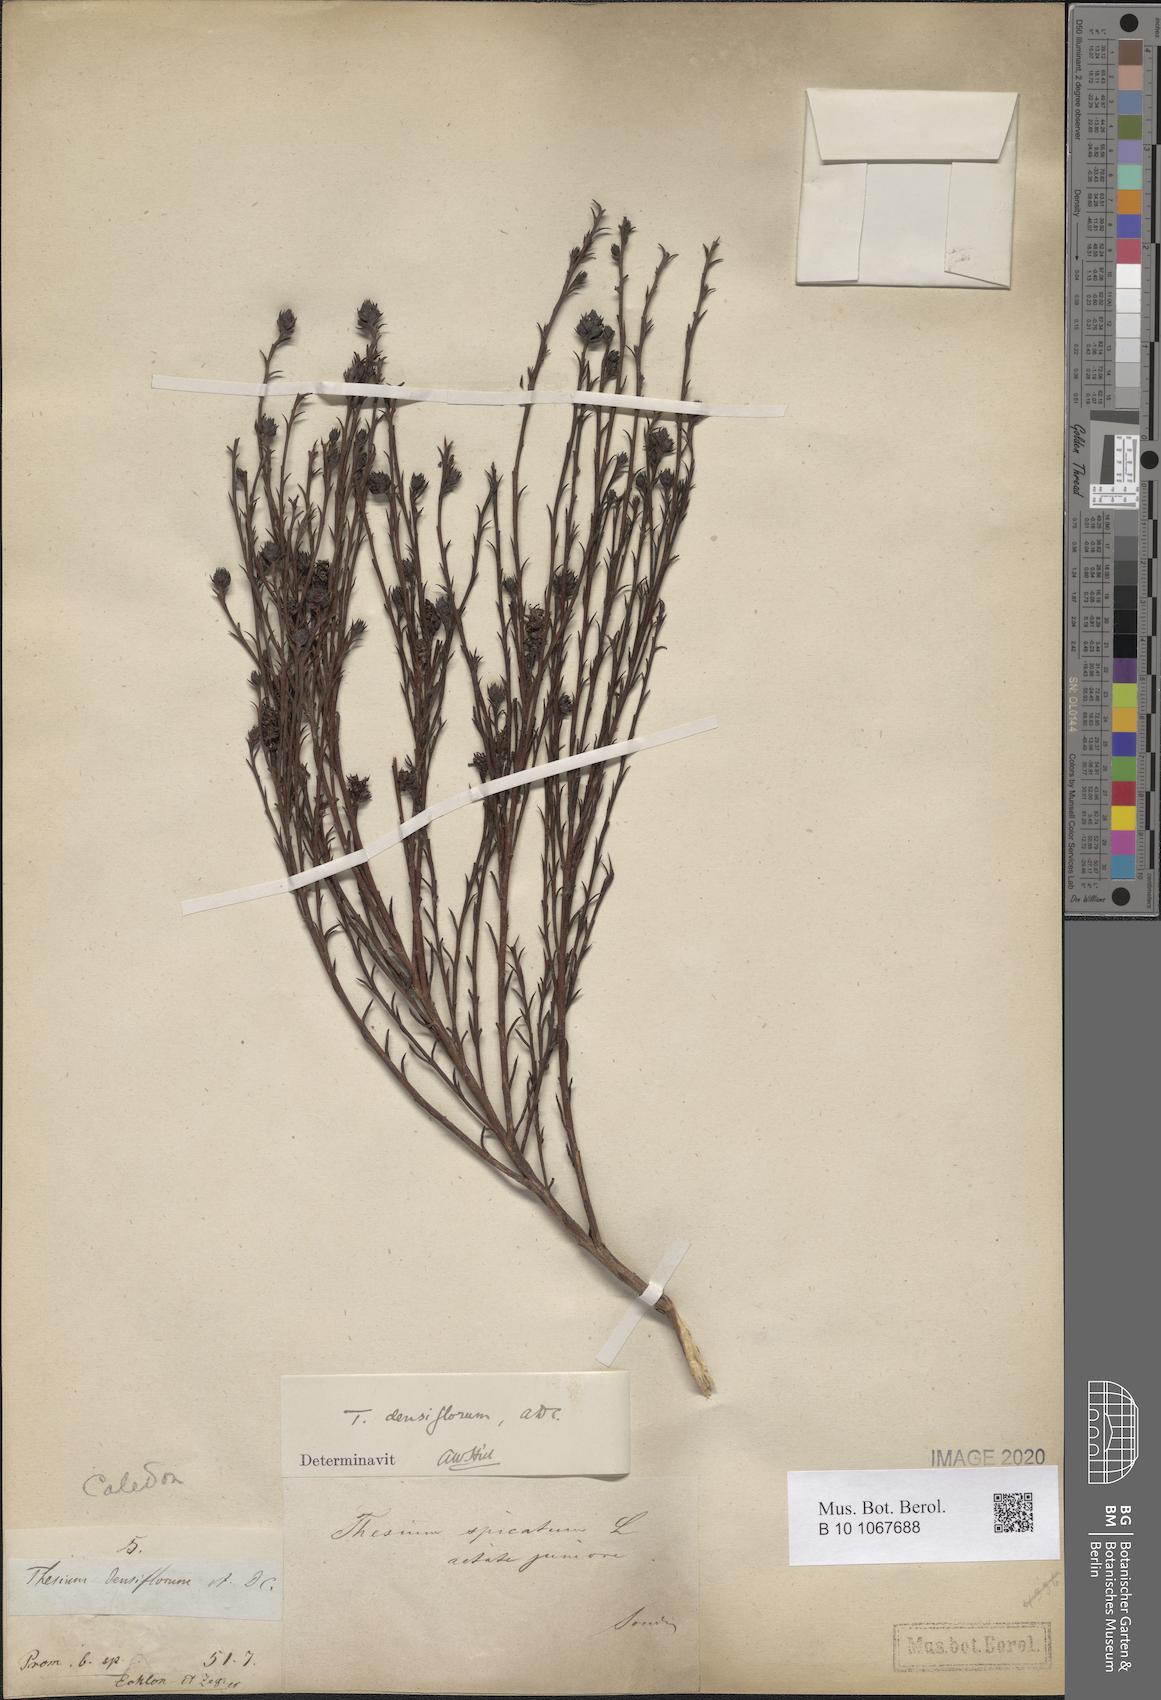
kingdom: Plantae
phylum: Tracheophyta
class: Magnoliopsida
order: Santalales
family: Thesiaceae
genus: Thesium
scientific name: Thesium densiflorum
